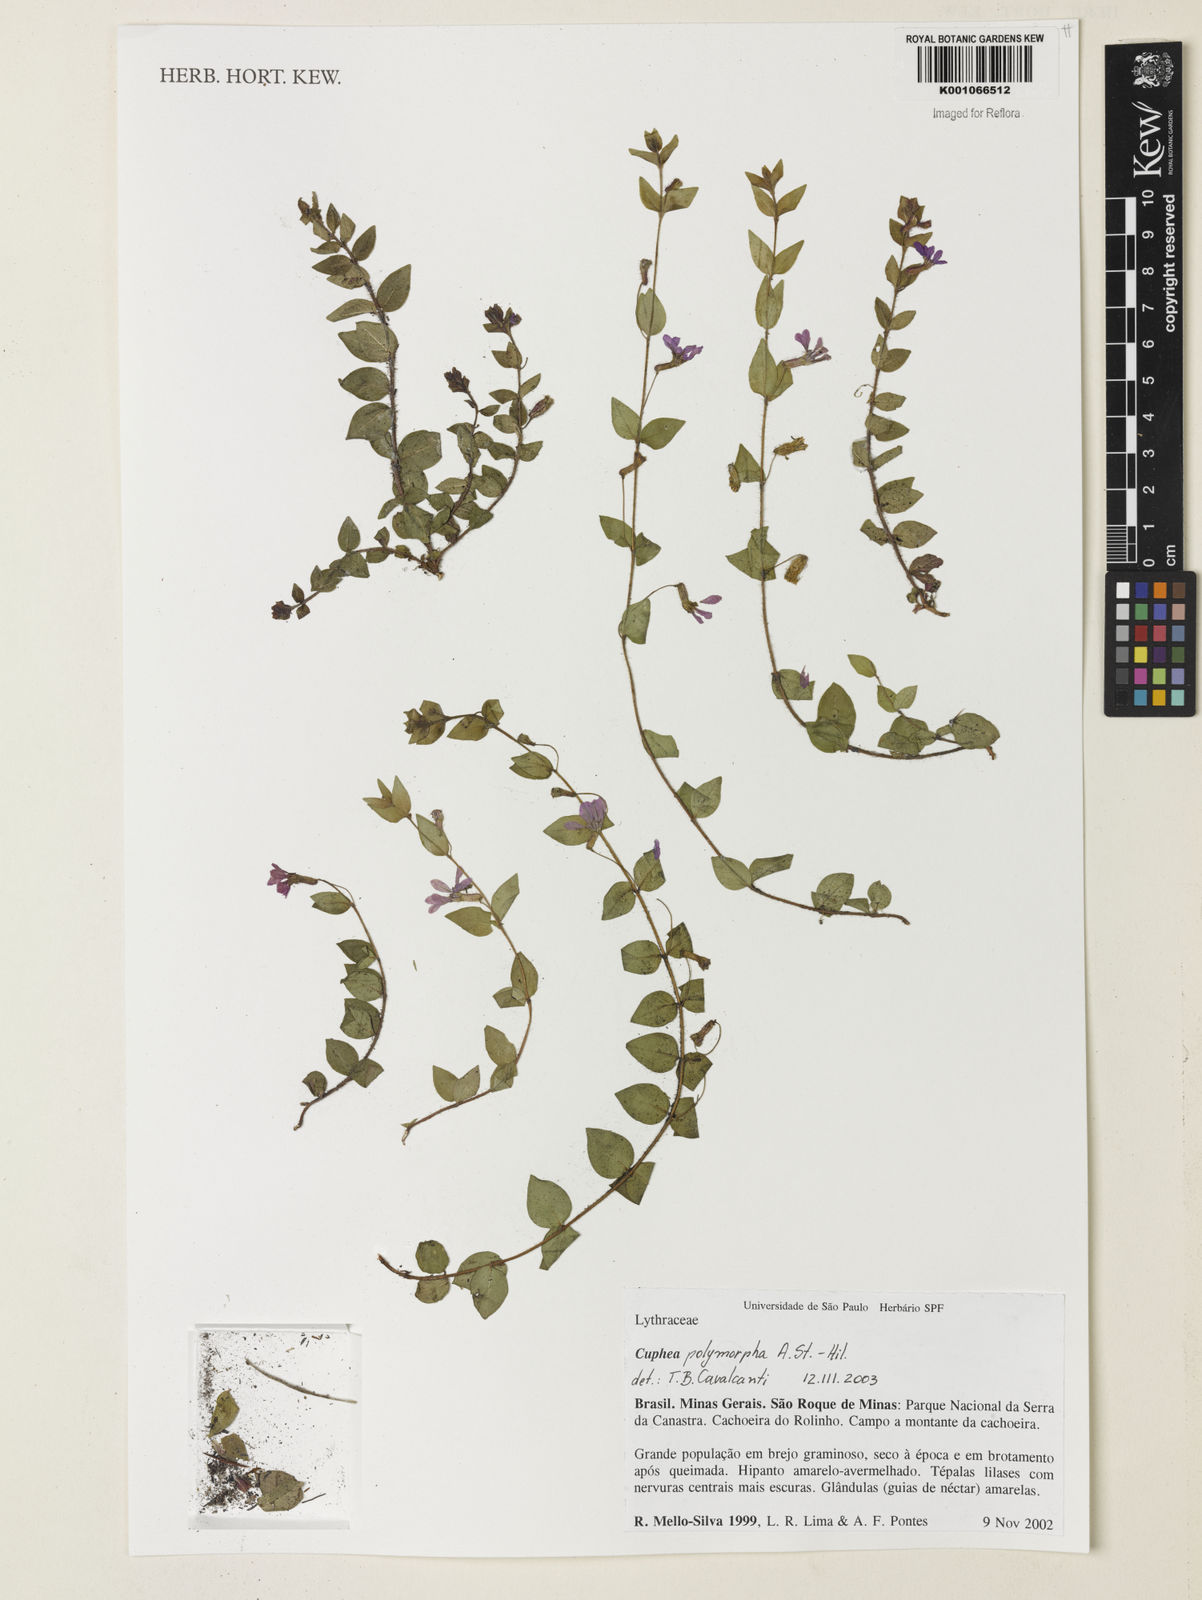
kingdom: Plantae
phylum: Tracheophyta
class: Magnoliopsida
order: Myrtales
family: Lythraceae
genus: Cuphea
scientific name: Cuphea polymorpha
